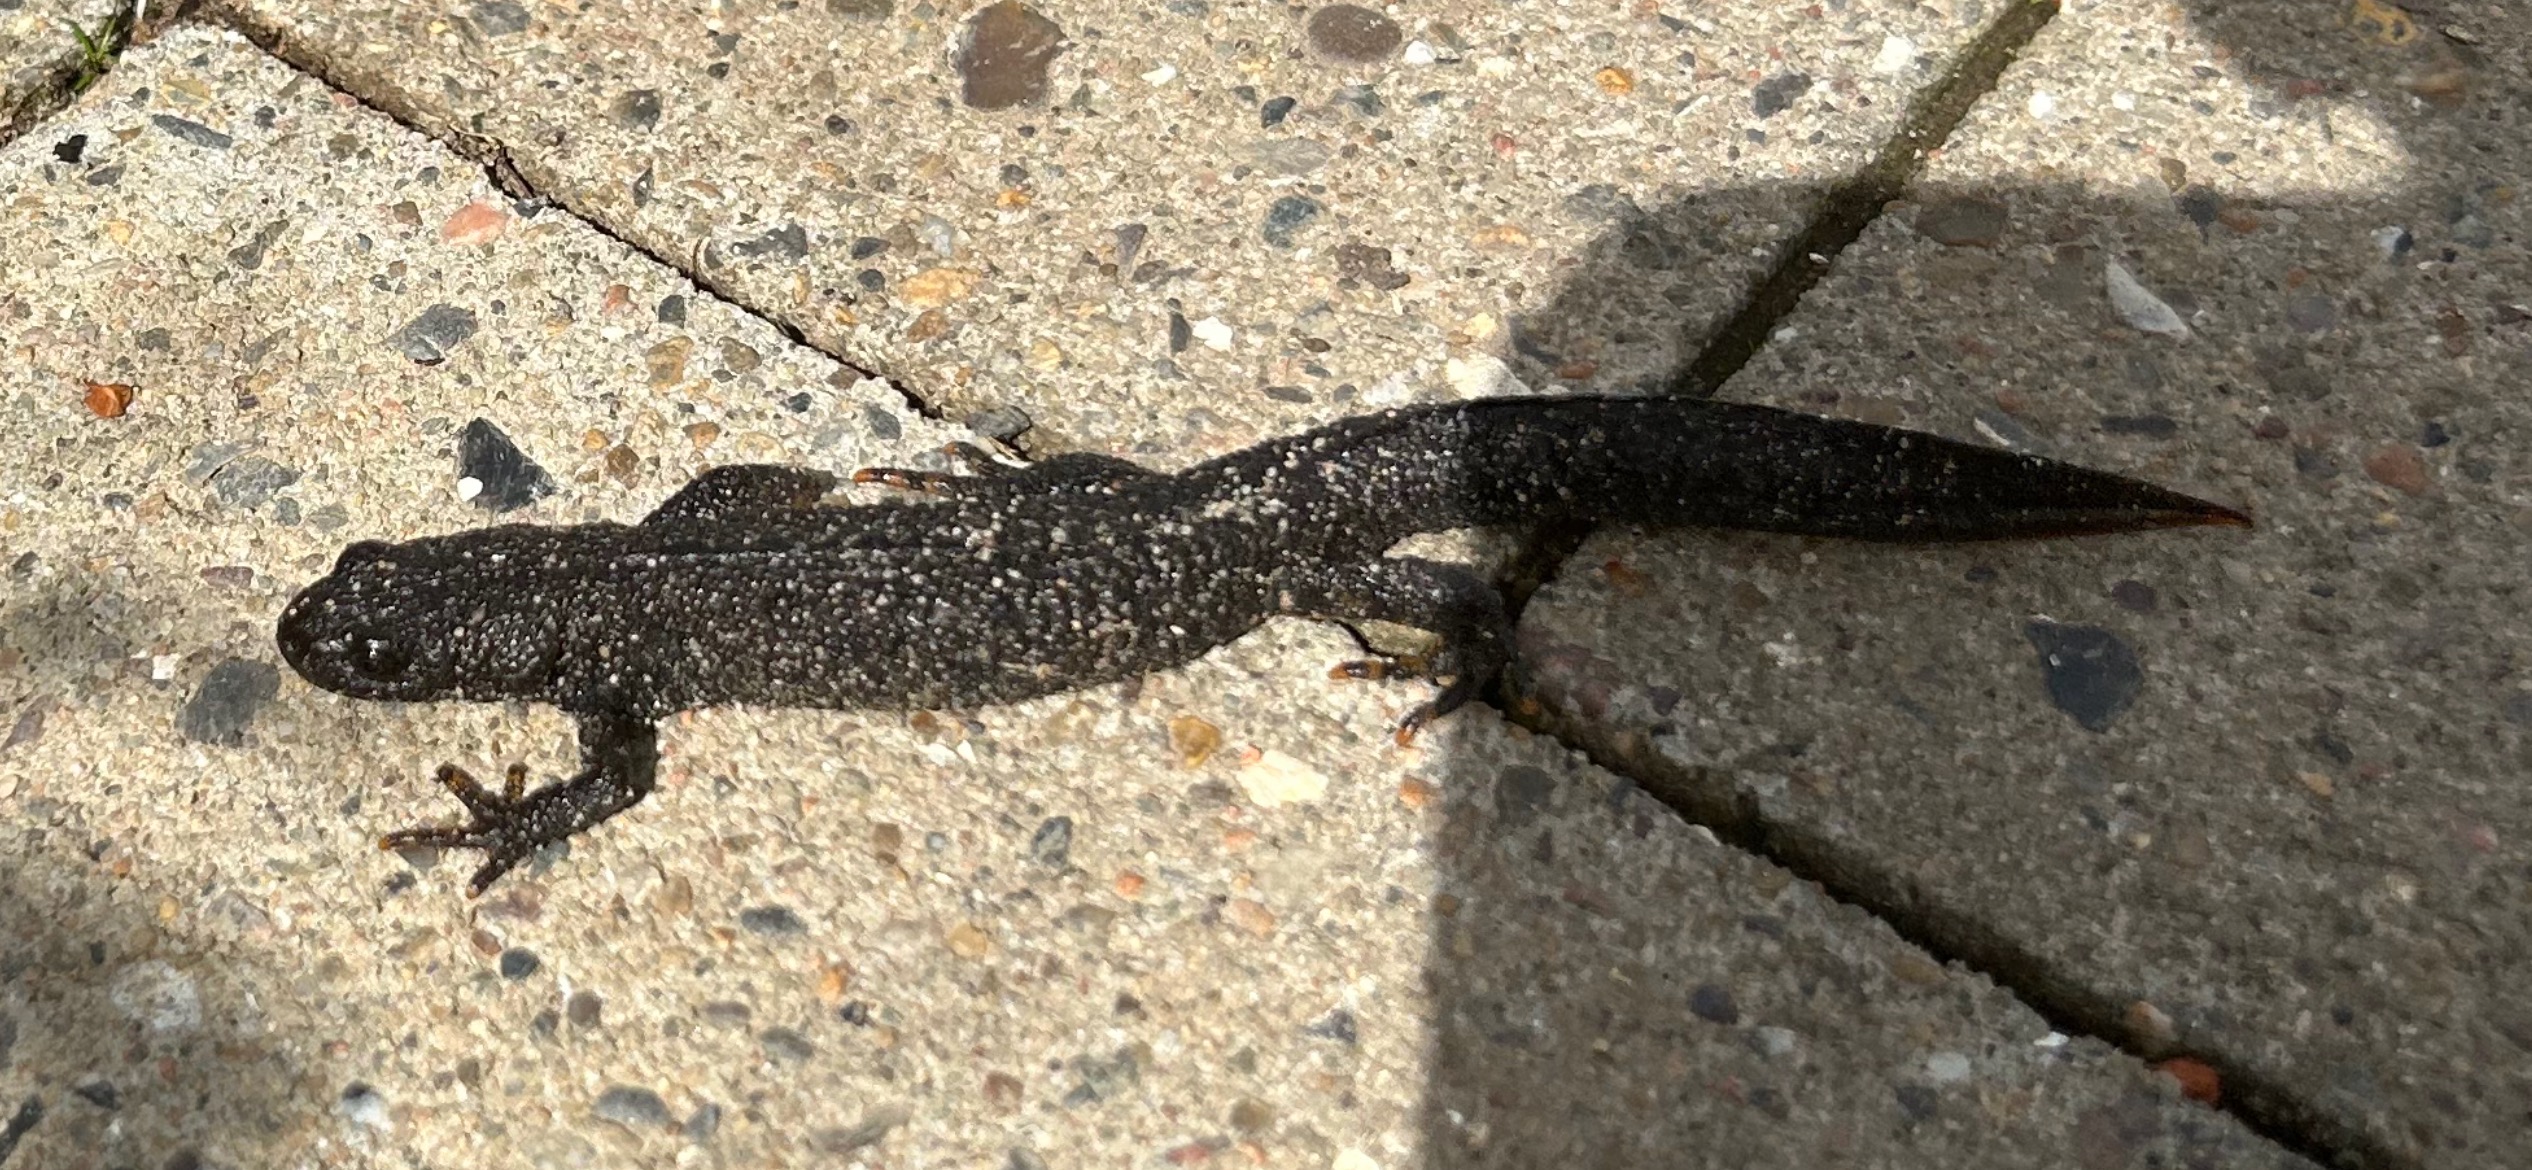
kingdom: Animalia
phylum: Chordata
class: Amphibia
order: Caudata
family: Salamandridae
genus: Triturus
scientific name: Triturus cristatus
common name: Stor vandsalamander
